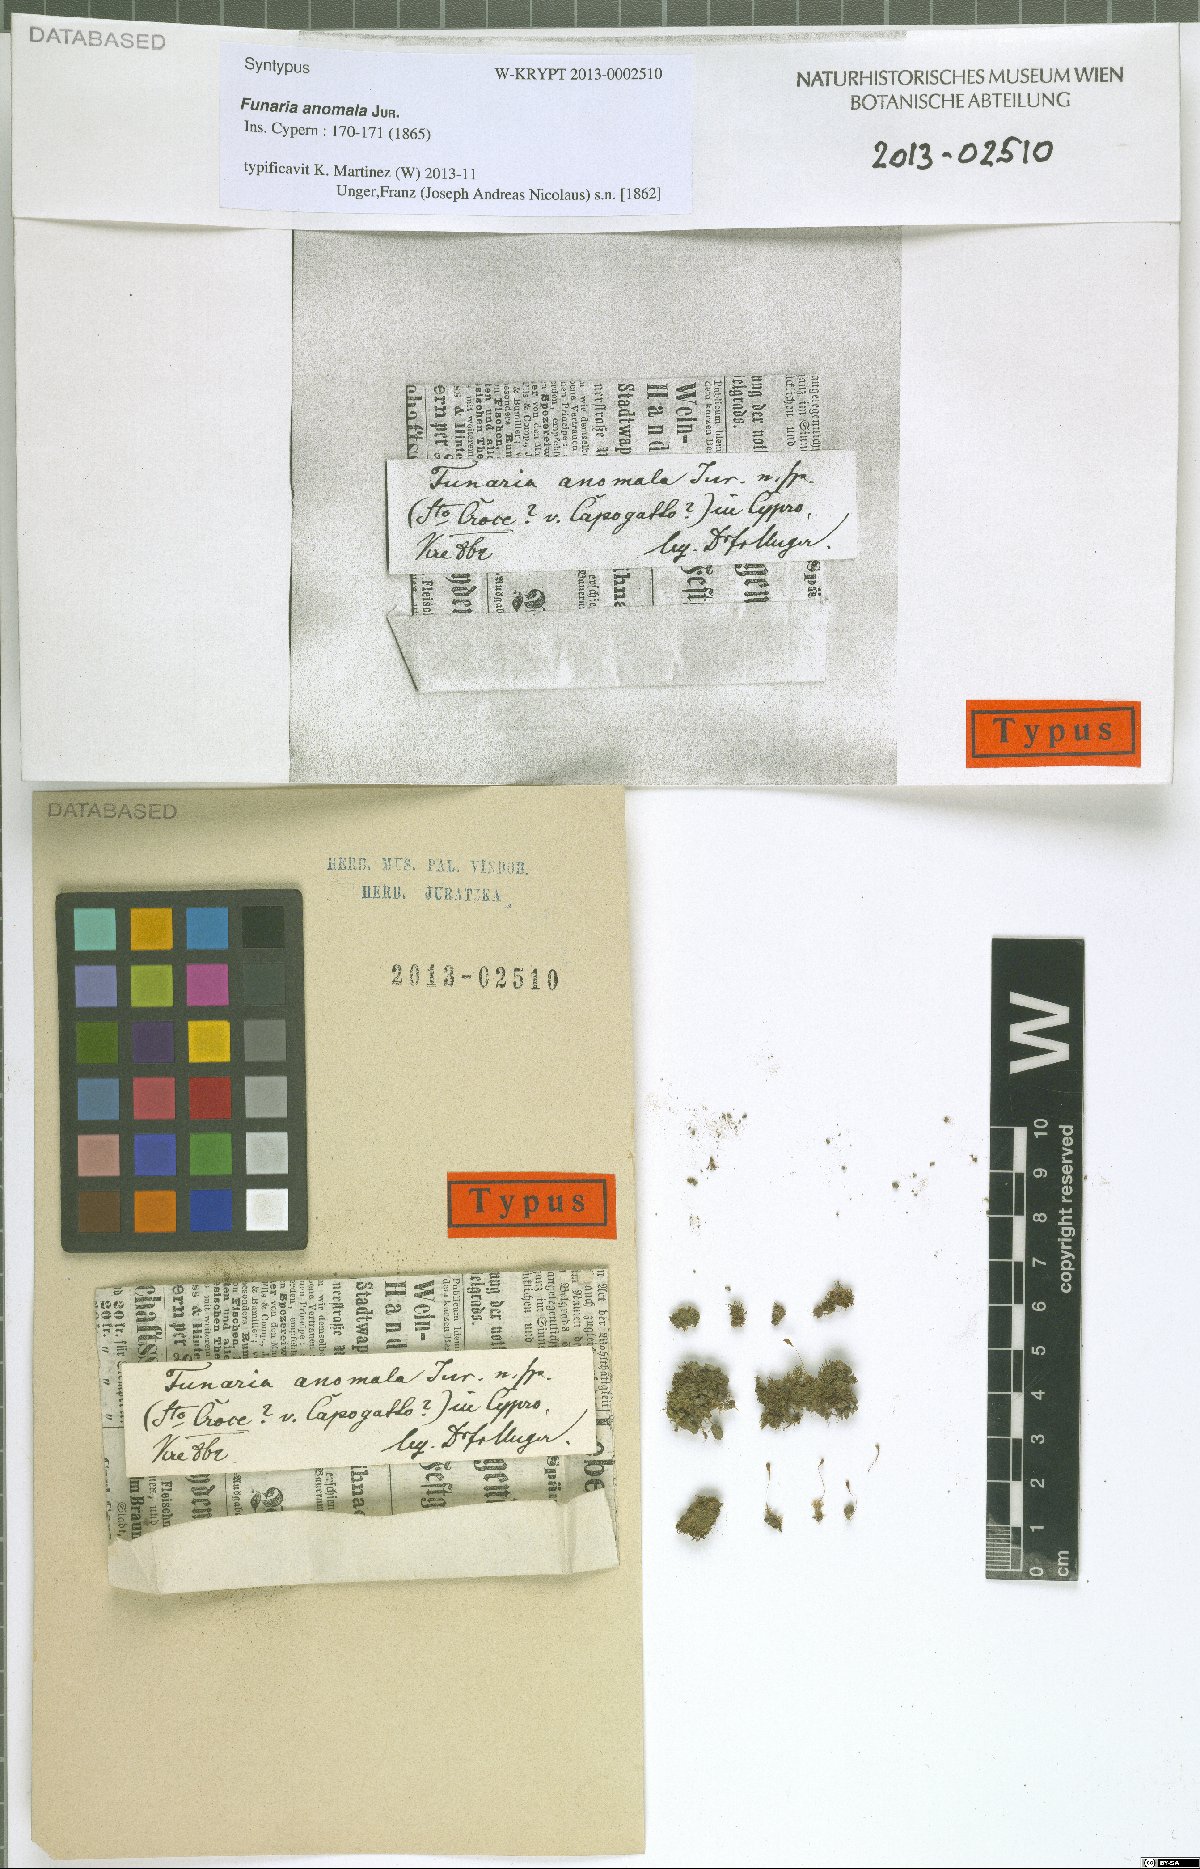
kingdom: Plantae
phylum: Bryophyta
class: Bryopsida
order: Funariales
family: Funariaceae
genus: Funaria
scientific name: Funaria anomala
